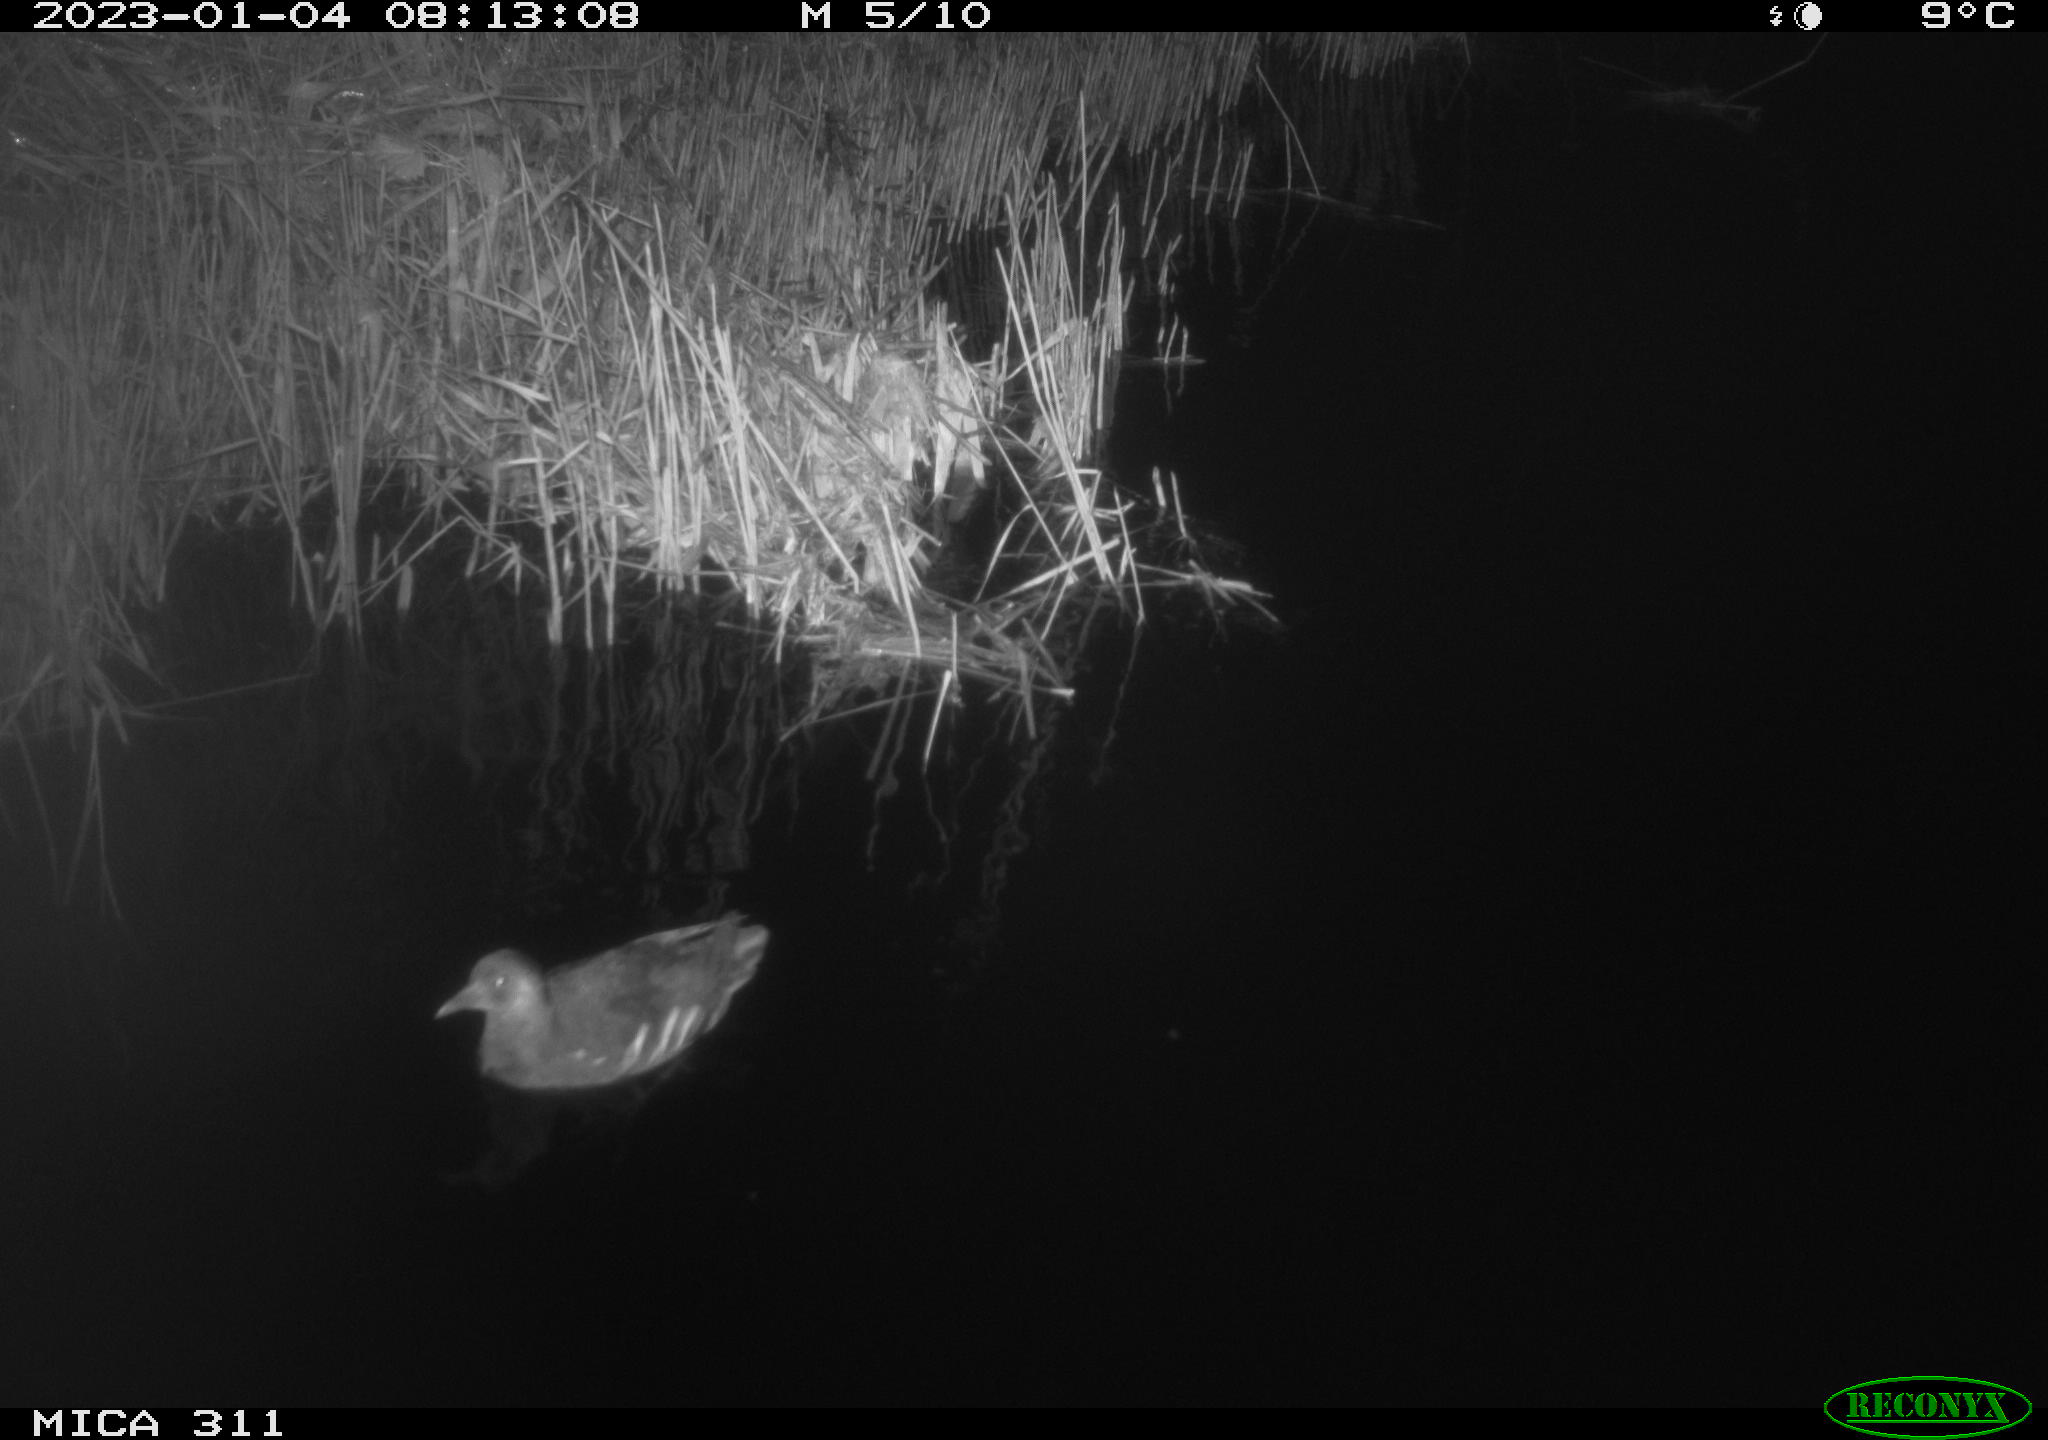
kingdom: Animalia
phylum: Chordata
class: Aves
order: Gruiformes
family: Rallidae
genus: Gallinula
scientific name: Gallinula chloropus
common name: Common moorhen
